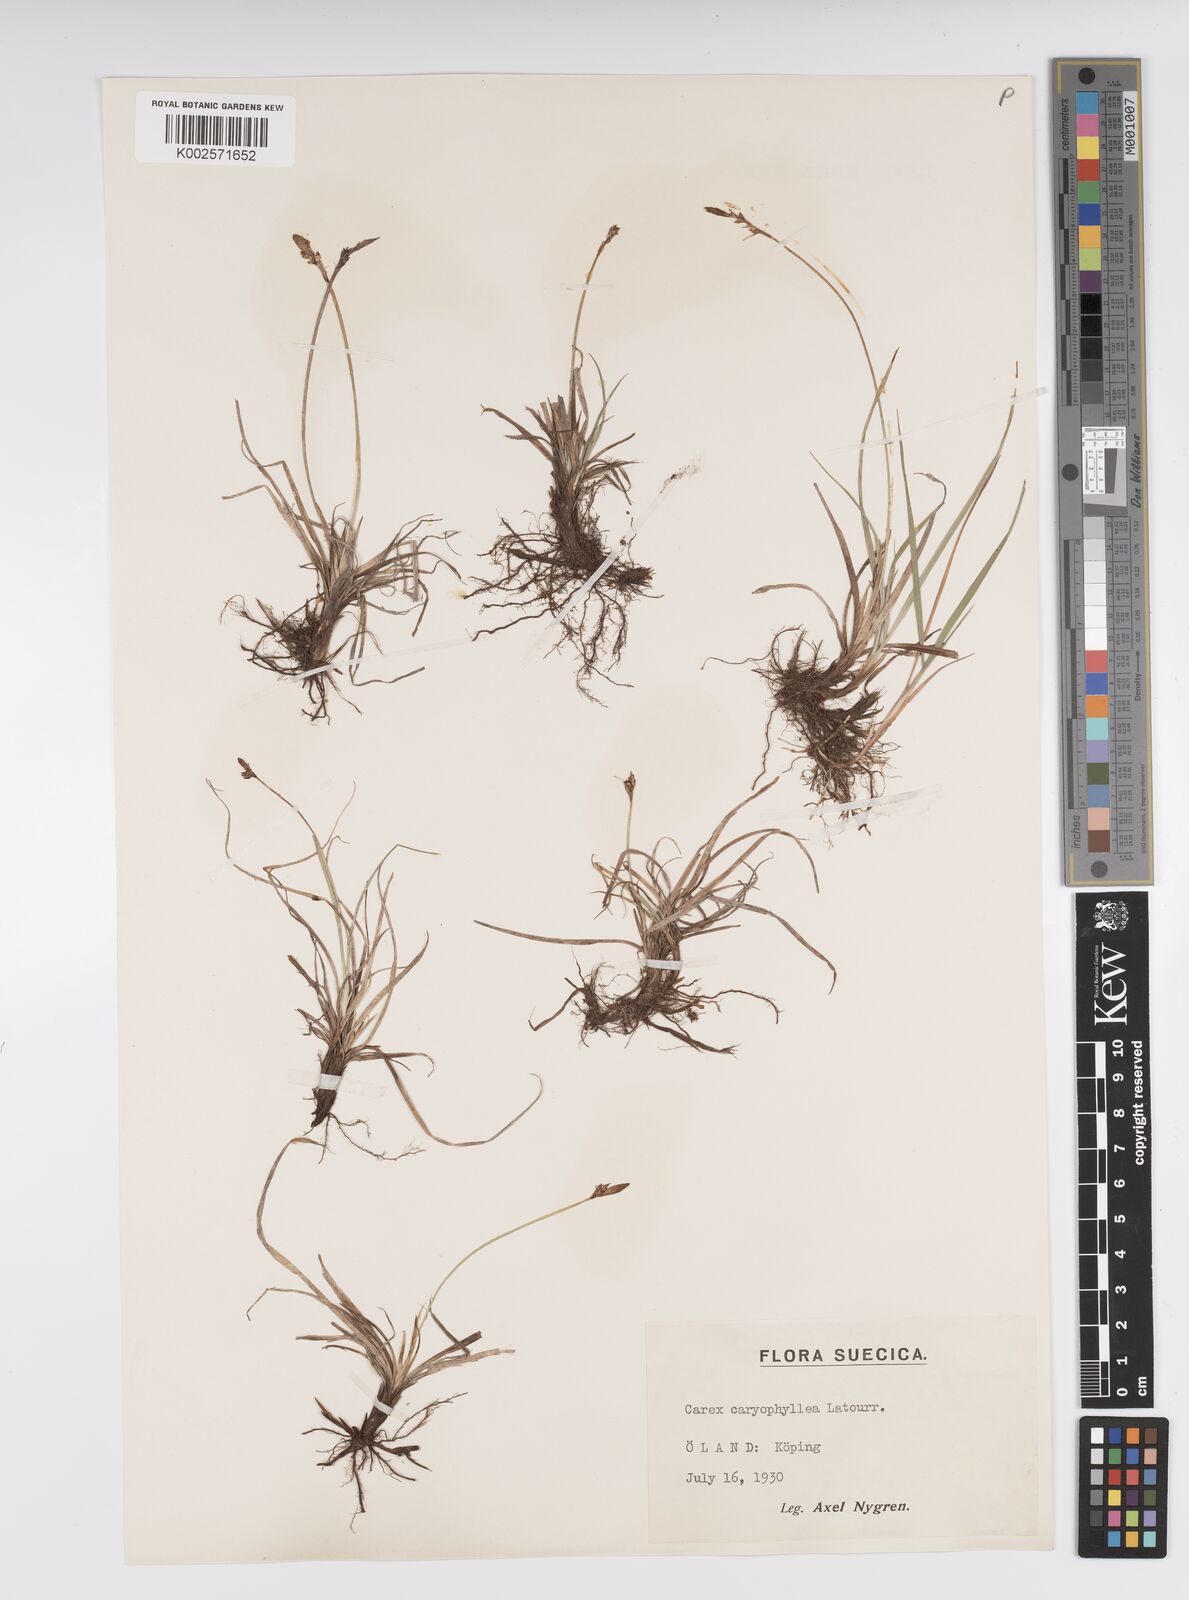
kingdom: Plantae
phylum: Tracheophyta
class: Liliopsida
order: Poales
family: Cyperaceae
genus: Carex
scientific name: Carex caryophyllea
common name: Spring sedge
